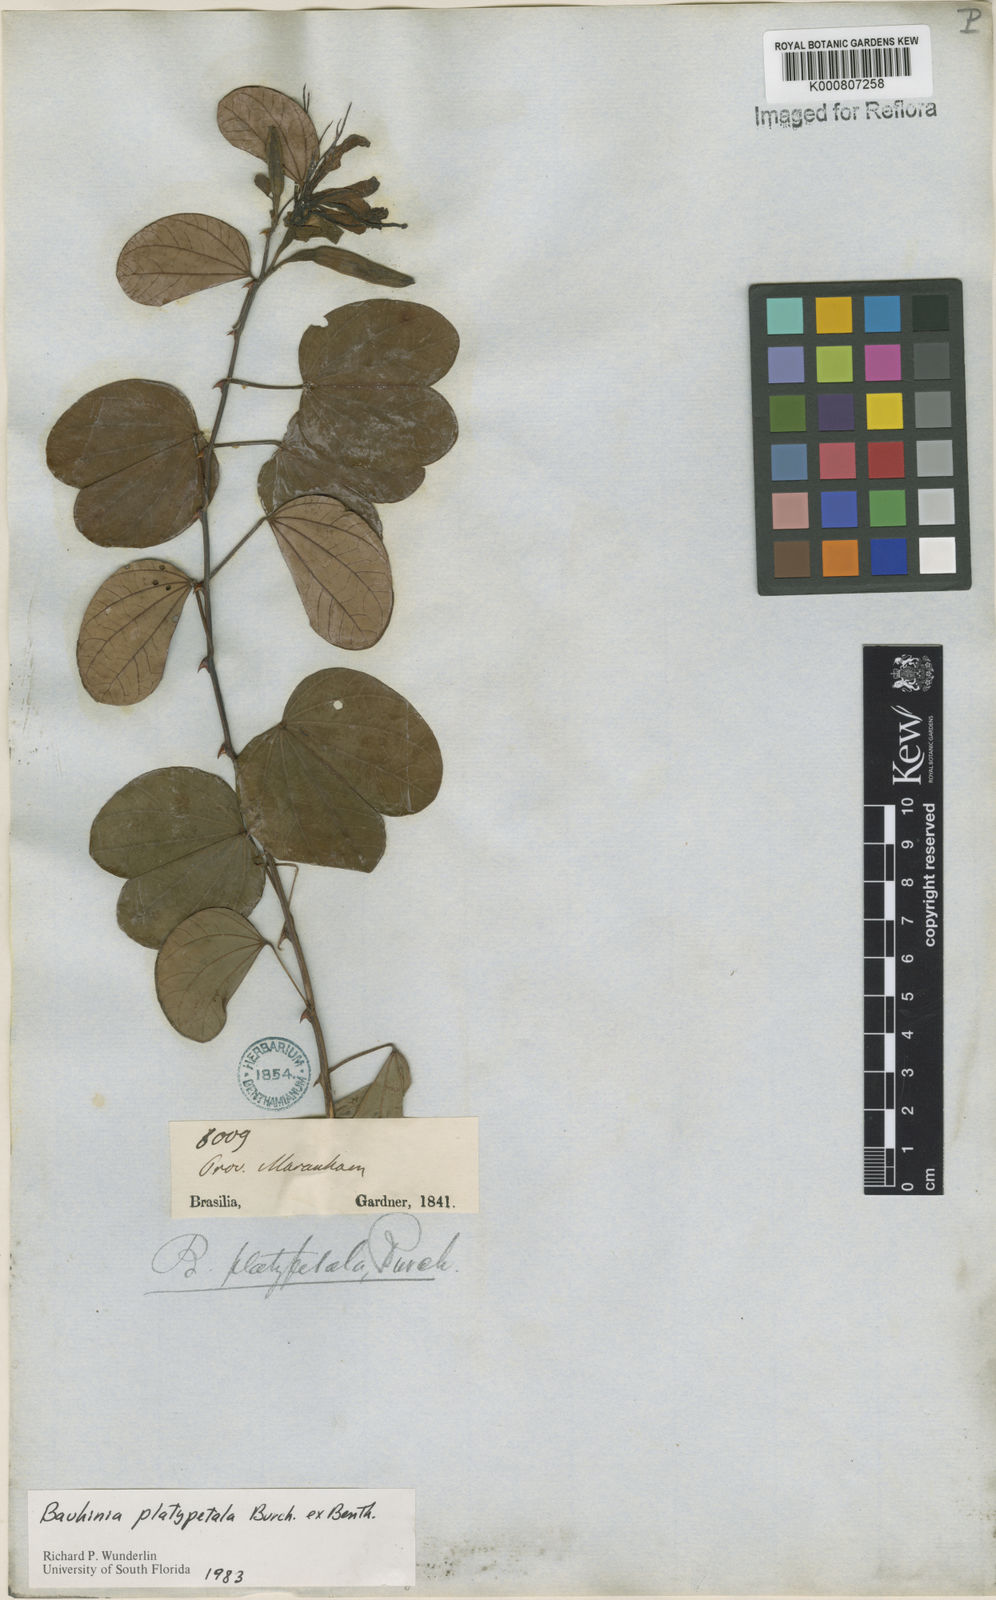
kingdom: Plantae
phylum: Tracheophyta
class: Magnoliopsida
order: Fabales
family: Fabaceae
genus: Bauhinia
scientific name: Bauhinia platypetala
